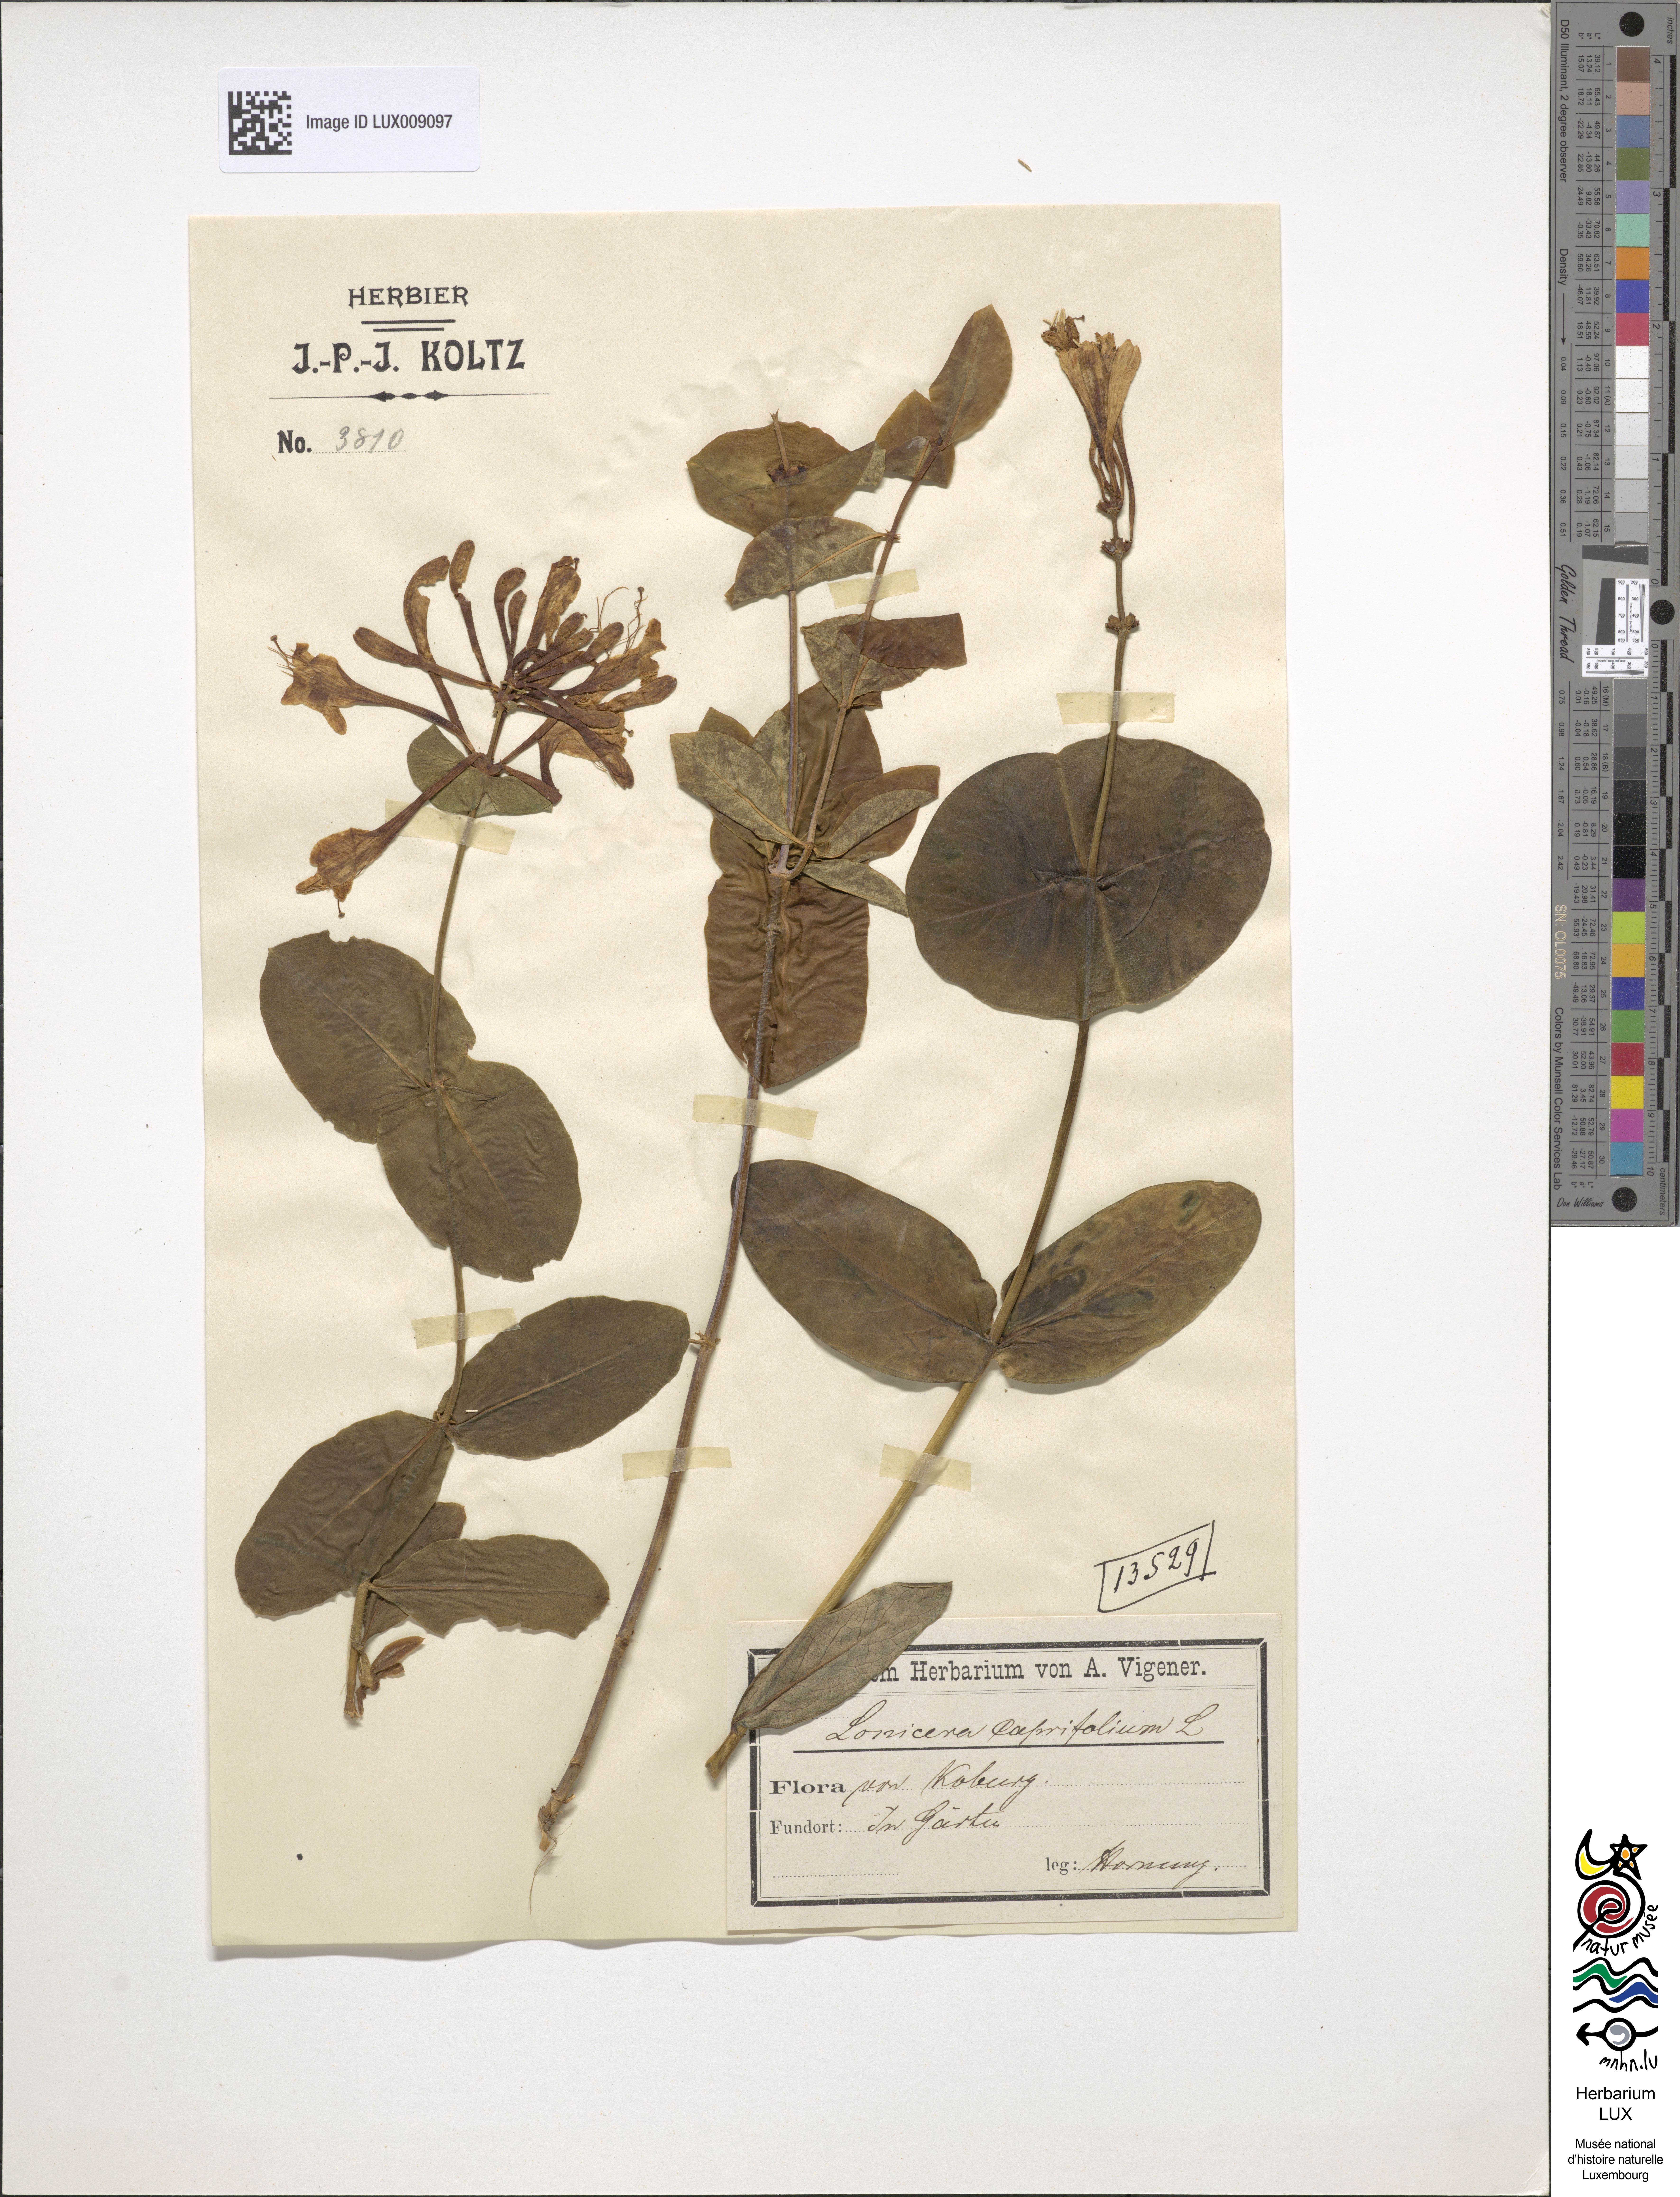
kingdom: Plantae
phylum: Tracheophyta
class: Magnoliopsida
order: Dipsacales
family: Caprifoliaceae
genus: Lonicera
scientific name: Lonicera caprifolium
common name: Perfoliate honeysuckle
